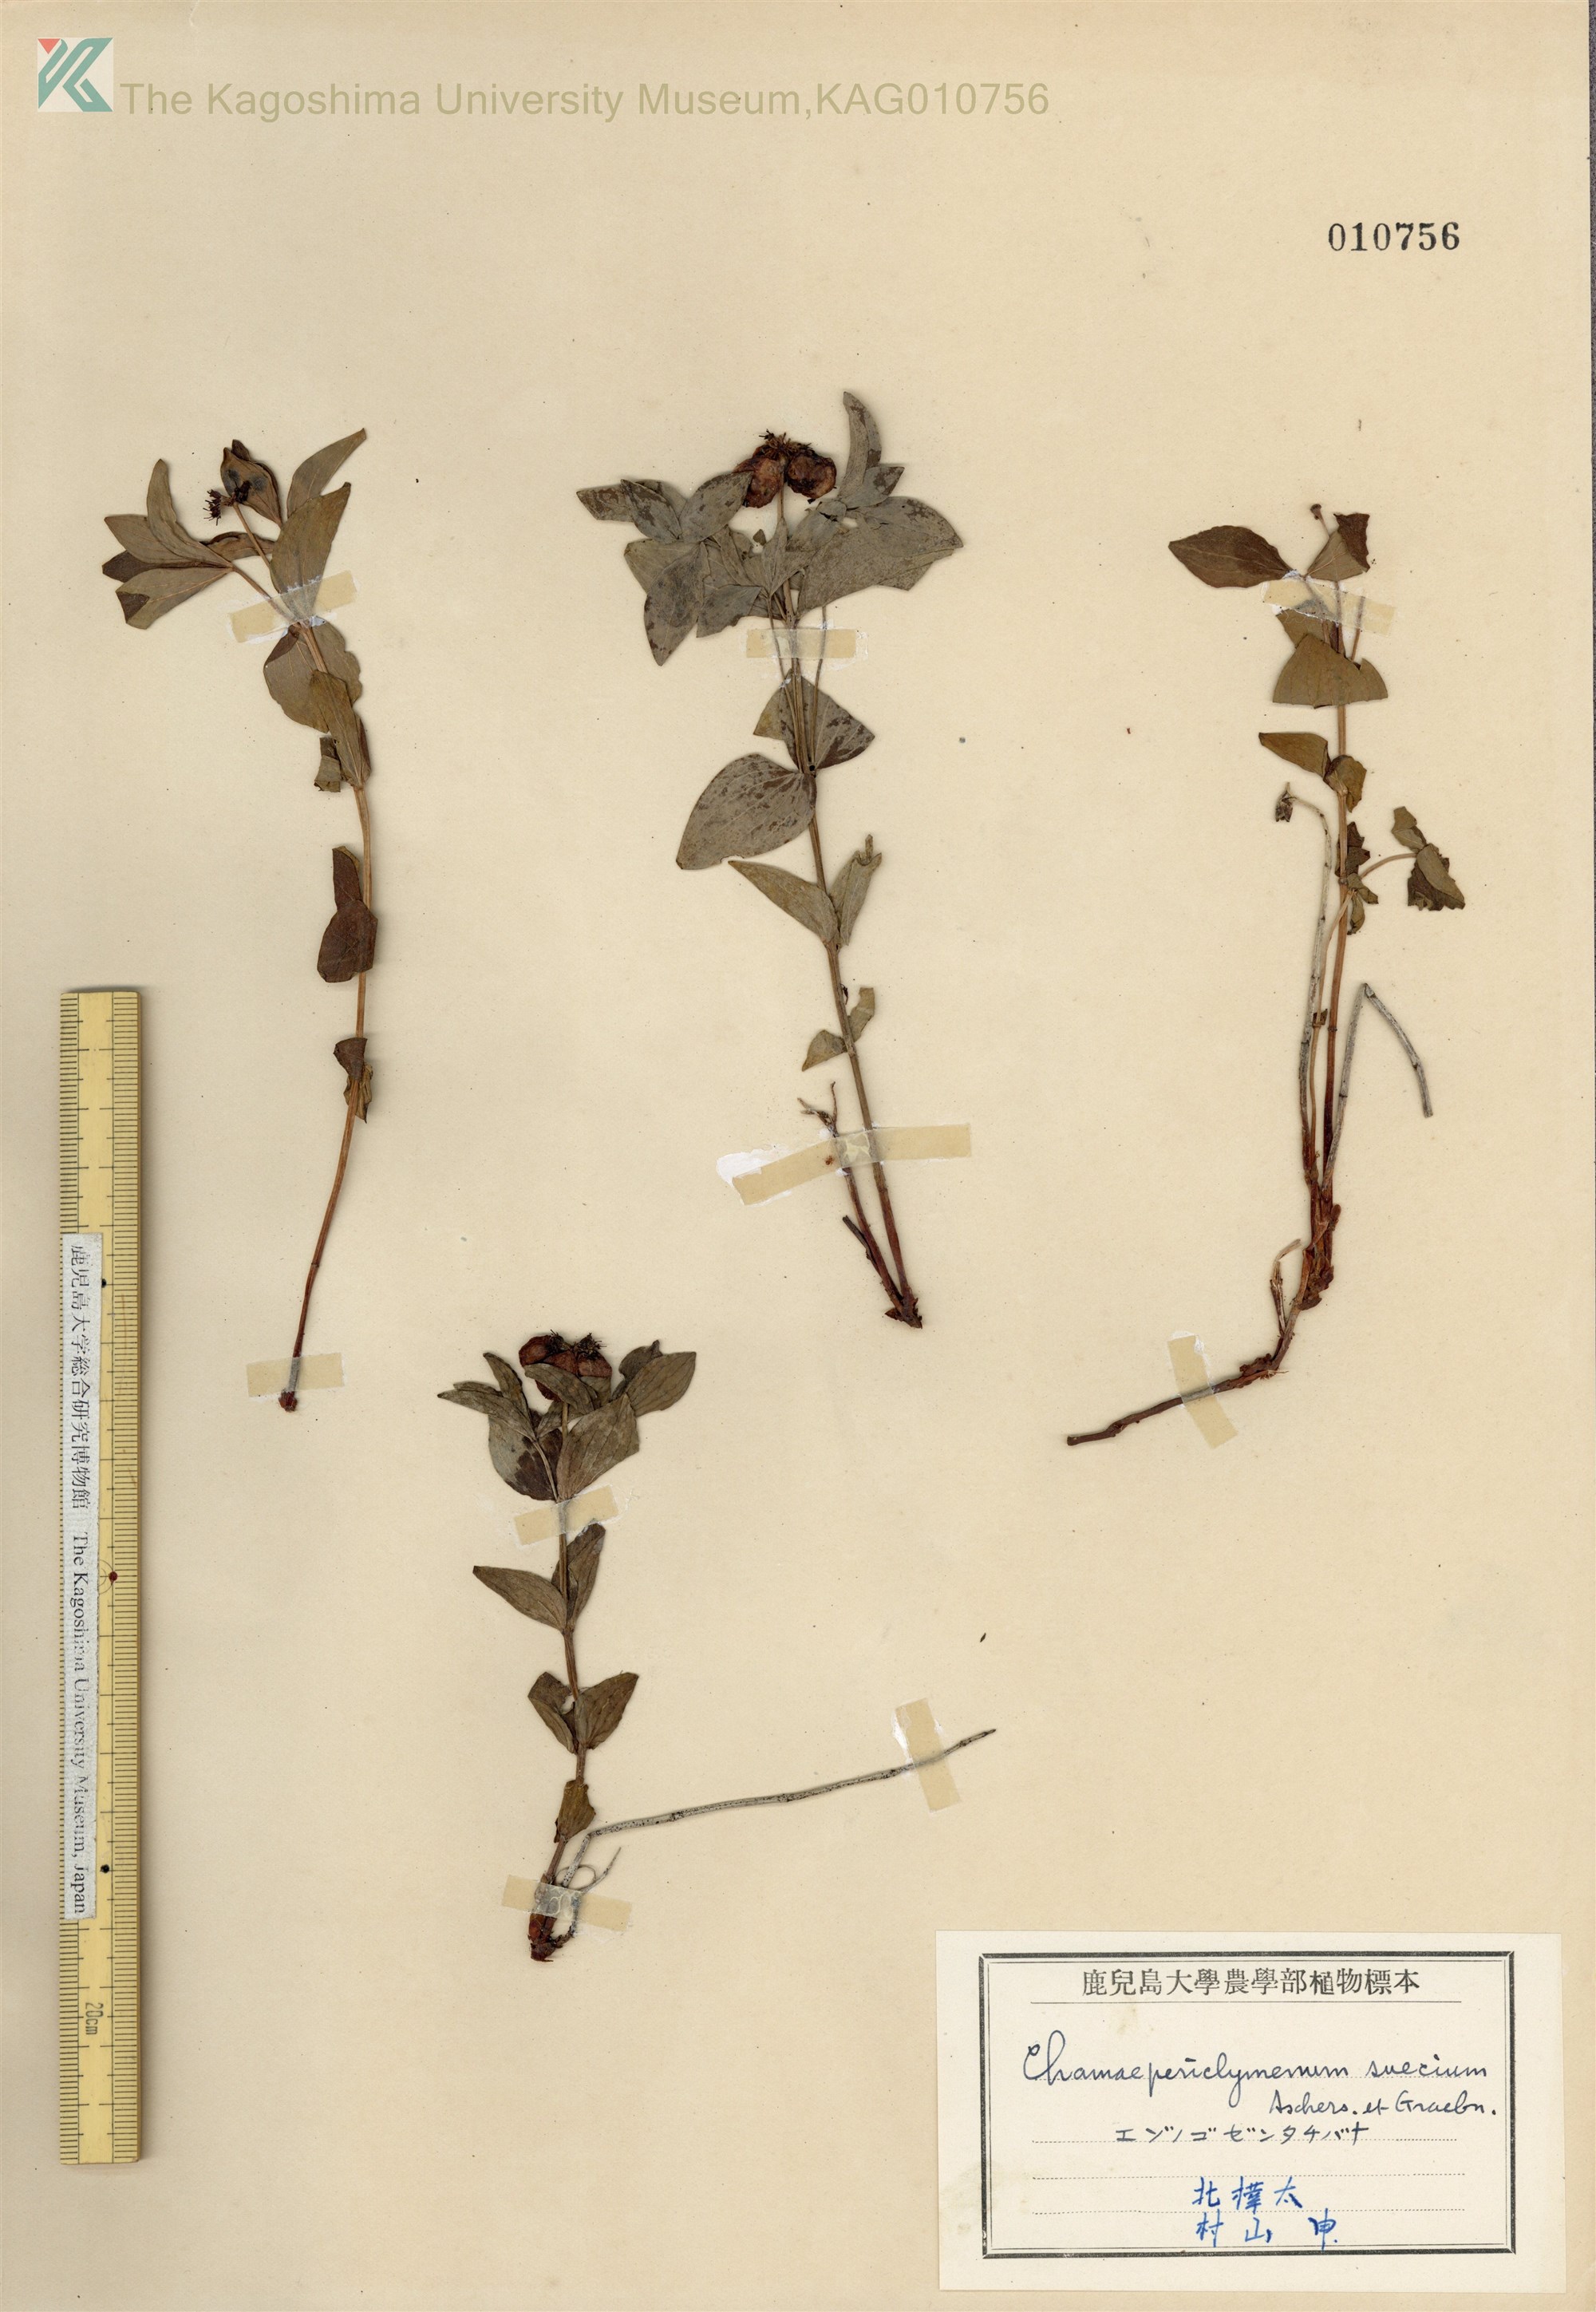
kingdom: Plantae
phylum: Tracheophyta
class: Magnoliopsida
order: Cornales
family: Cornaceae
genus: Cornus
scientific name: Cornus suecica
